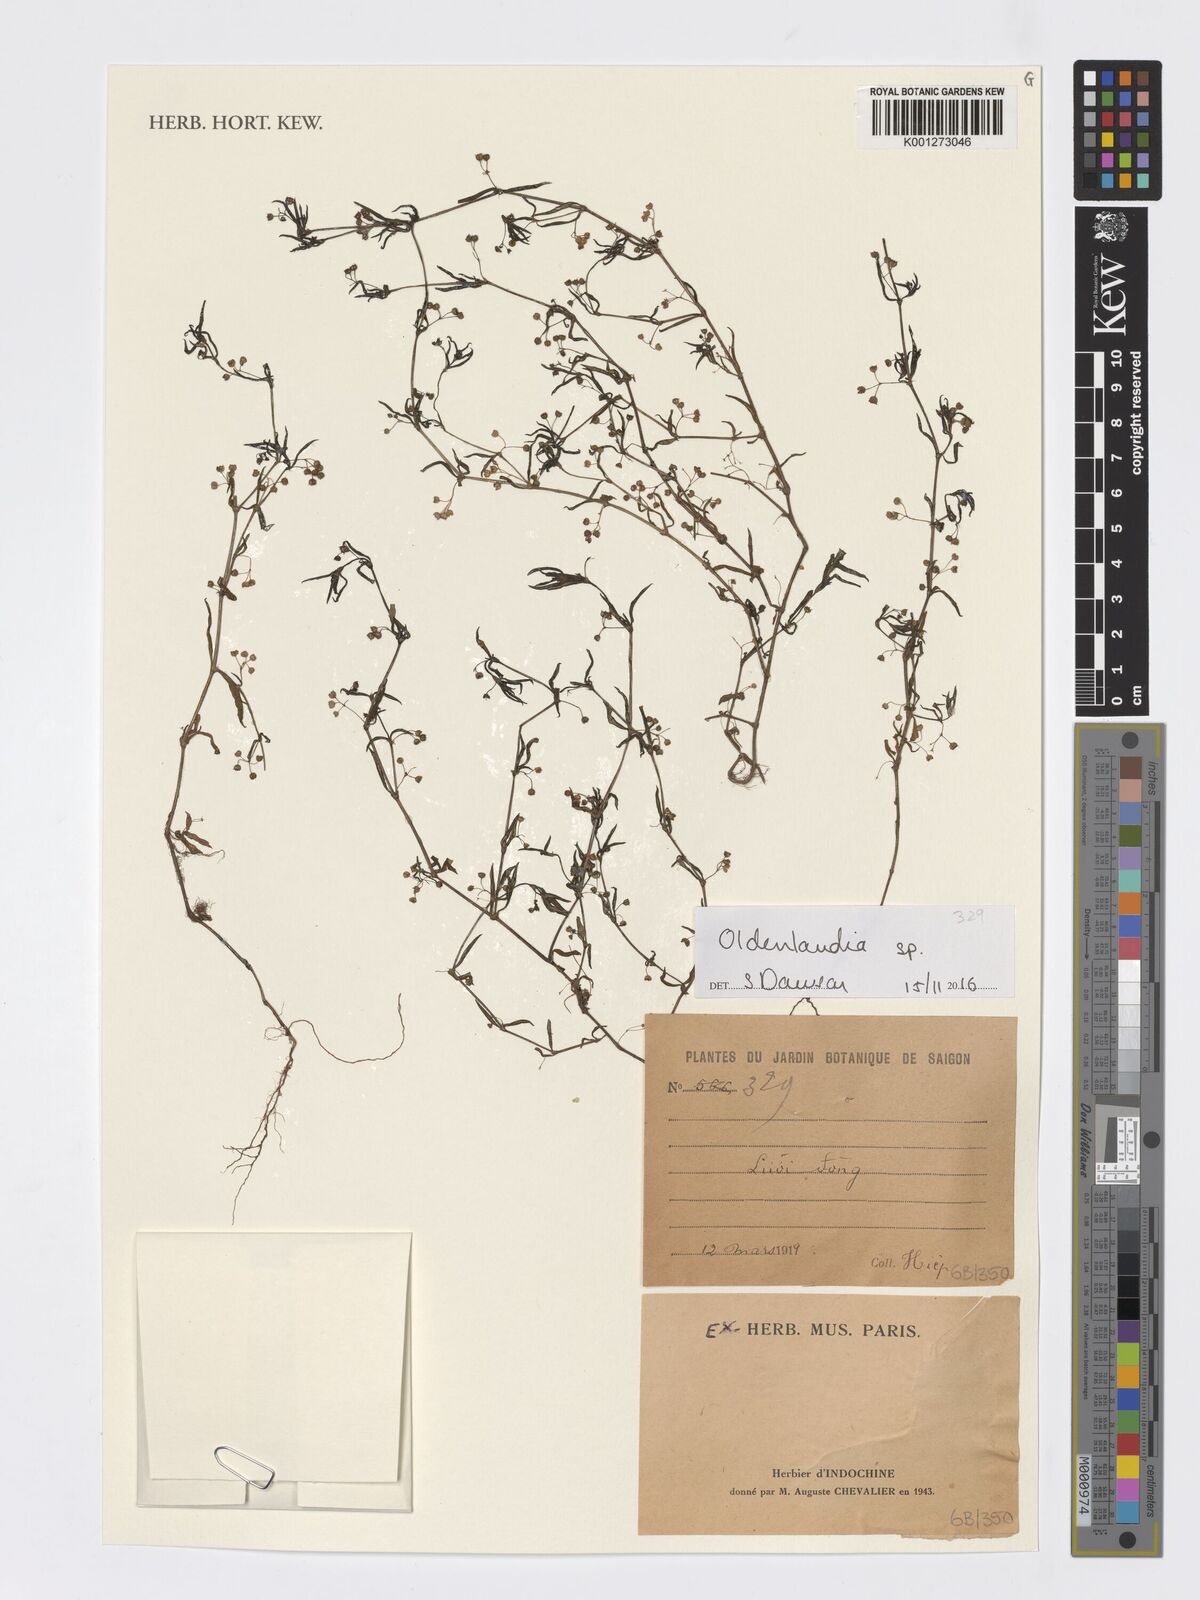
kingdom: Plantae
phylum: Tracheophyta
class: Magnoliopsida
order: Gentianales
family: Rubiaceae
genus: Oldenlandia
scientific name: Oldenlandia
